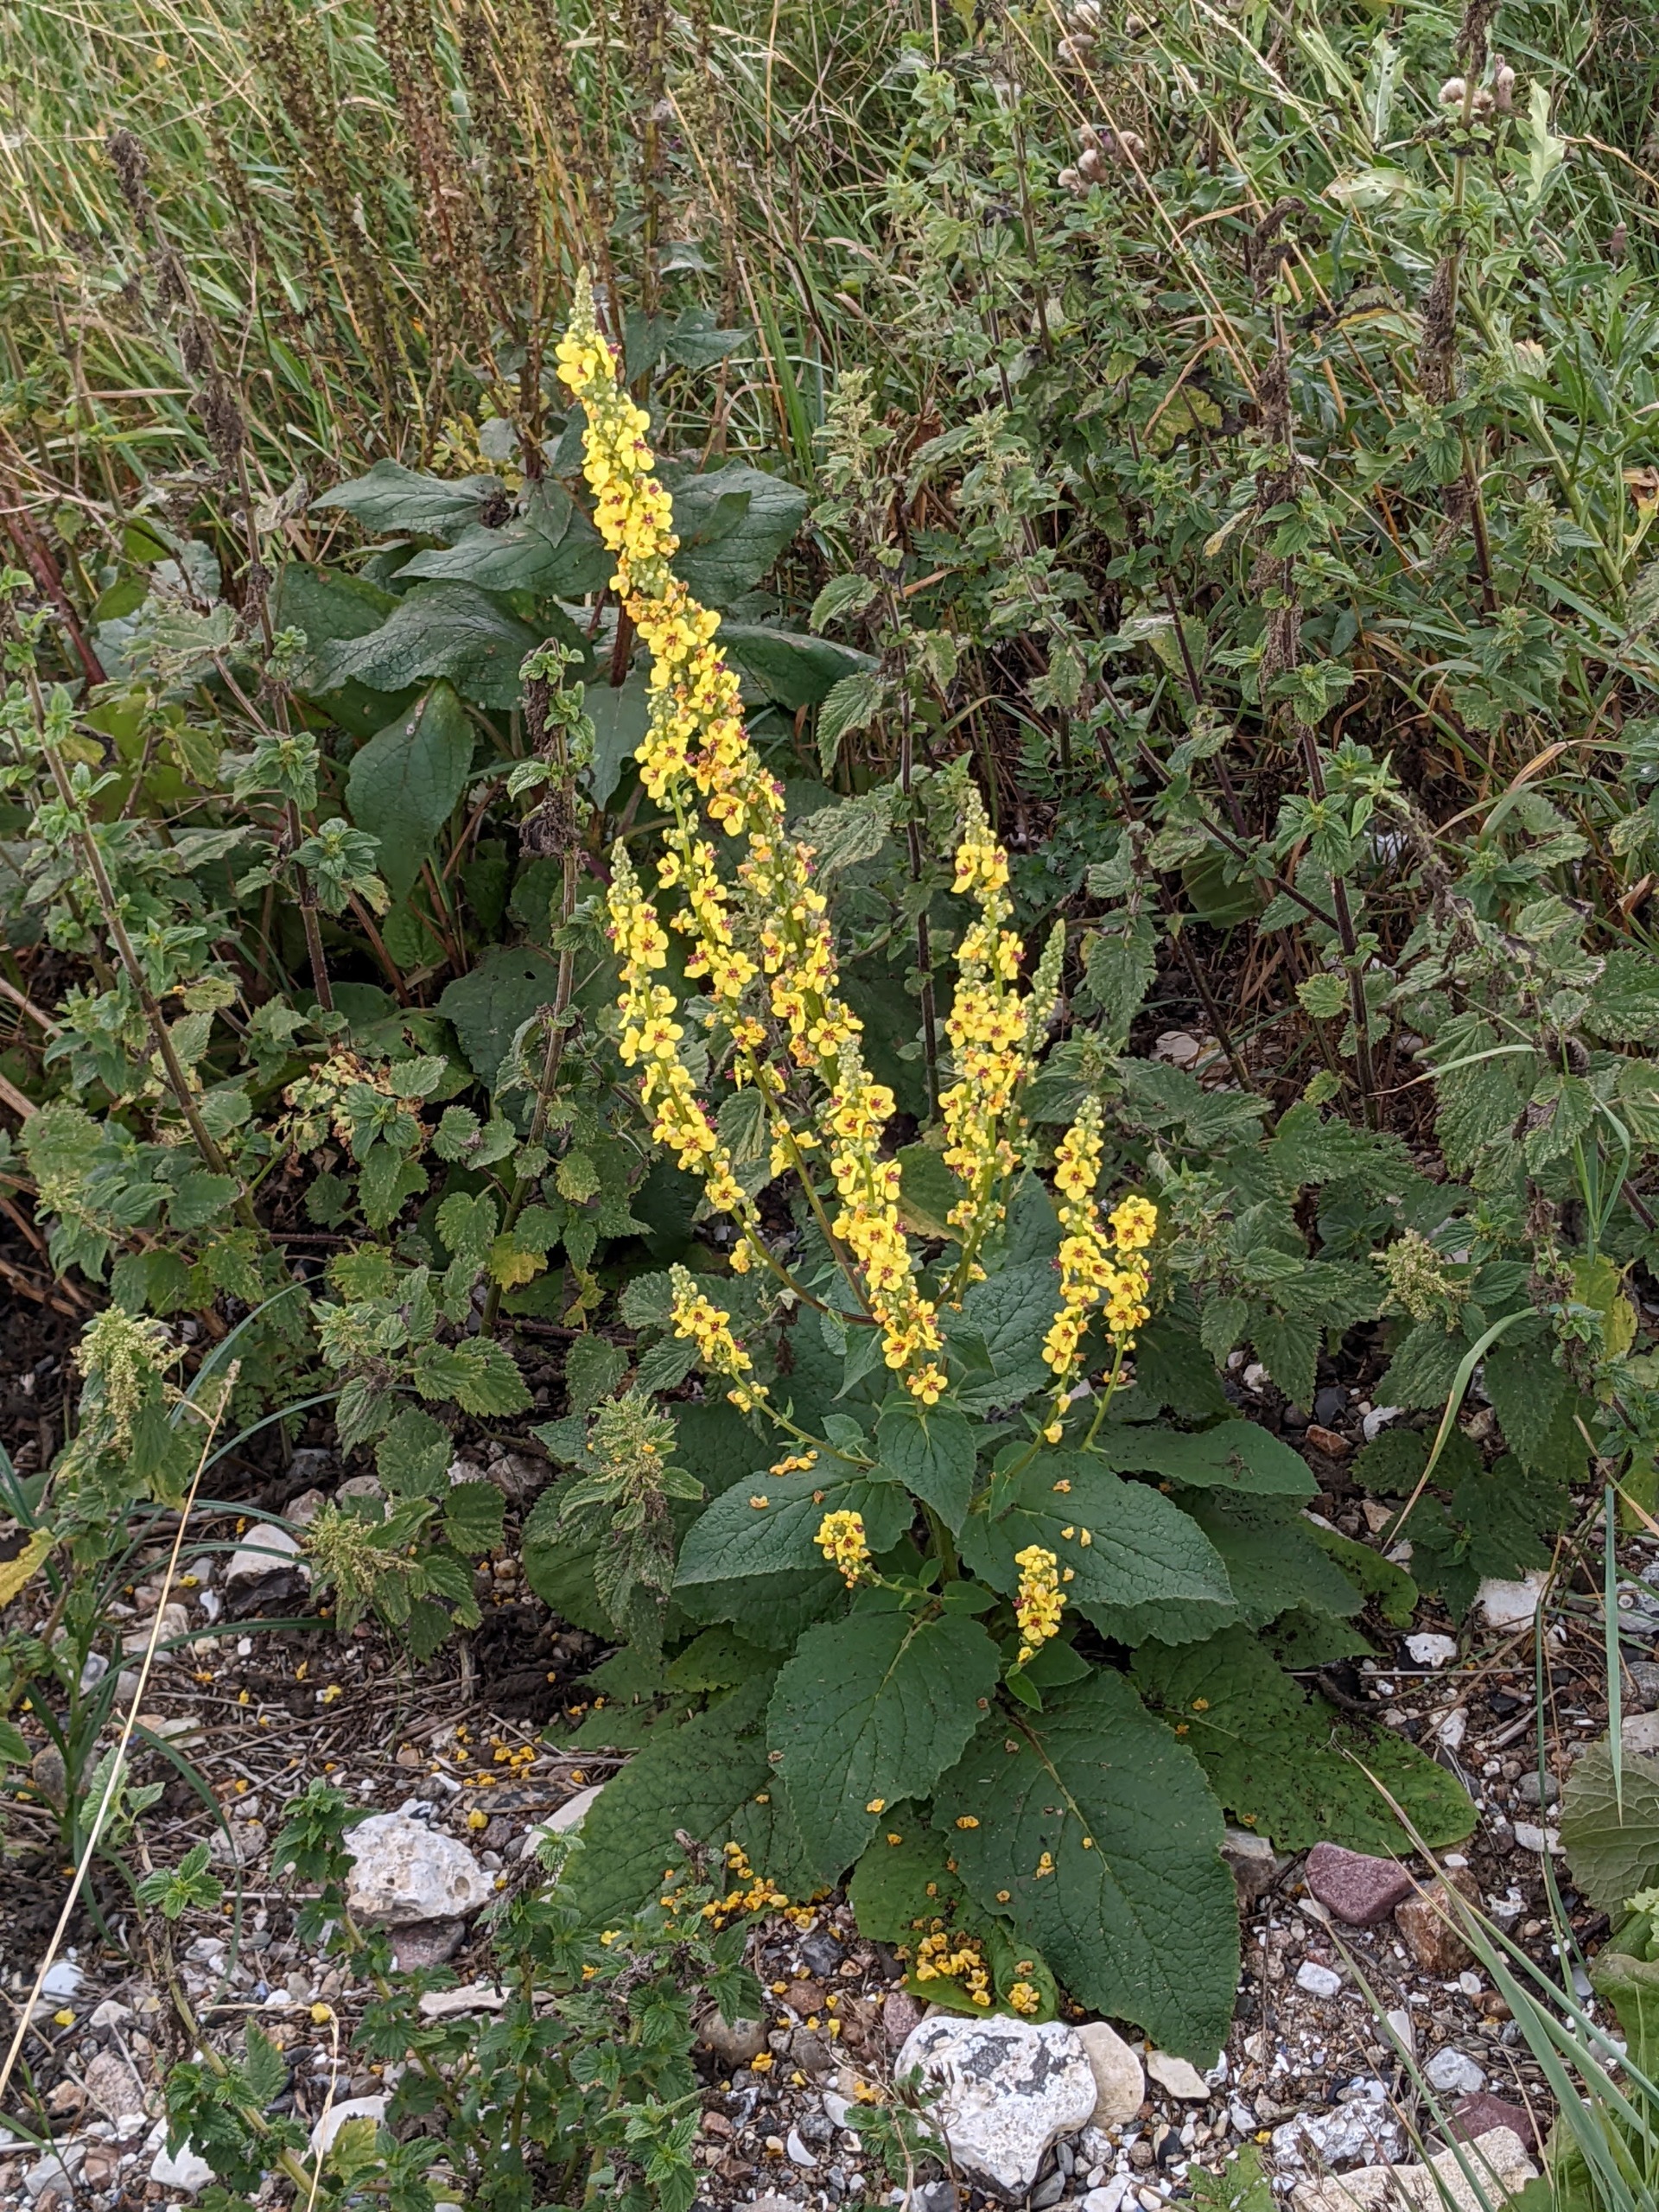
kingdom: Plantae
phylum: Tracheophyta
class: Magnoliopsida
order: Lamiales
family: Scrophulariaceae
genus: Verbascum
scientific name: Verbascum nigrum
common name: Mørk kongelys
